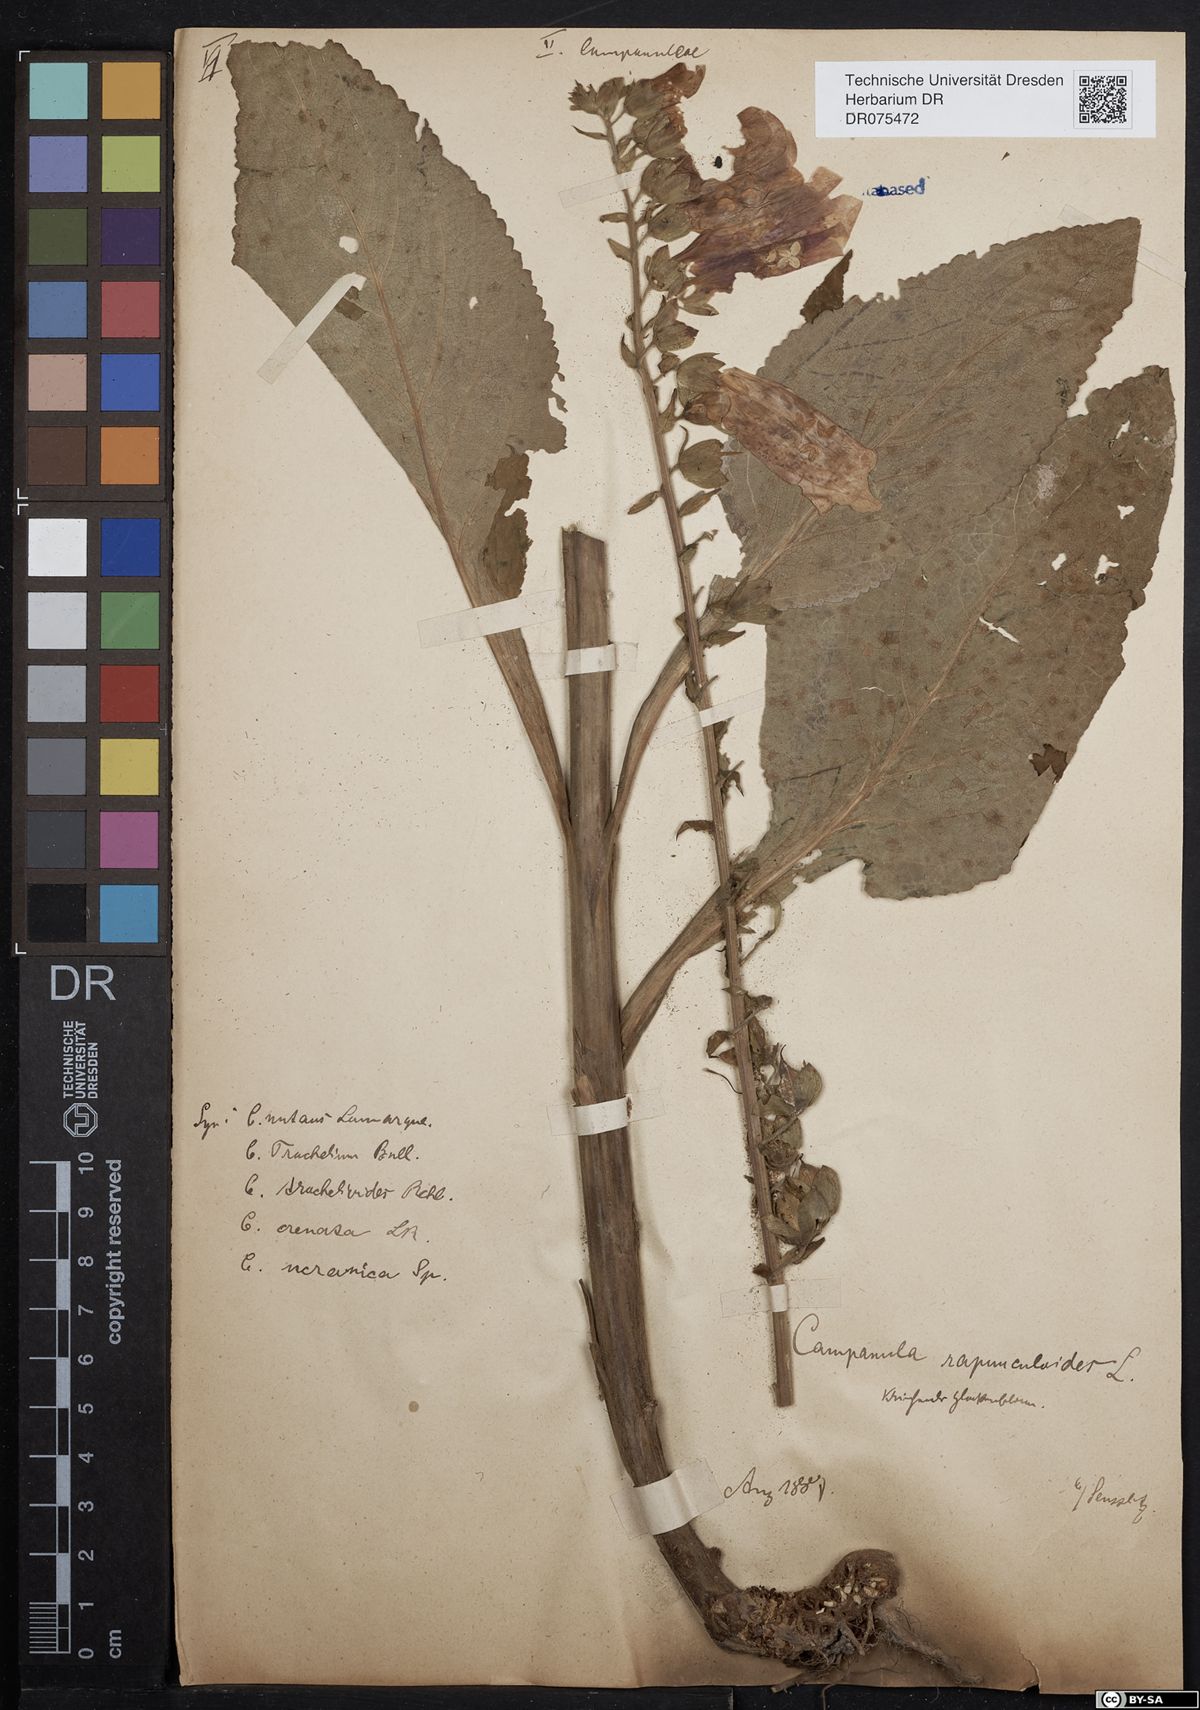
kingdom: Plantae
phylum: Tracheophyta
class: Magnoliopsida
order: Asterales
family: Campanulaceae
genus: Campanula
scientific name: Campanula rapunculoides
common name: Creeping bellflower
